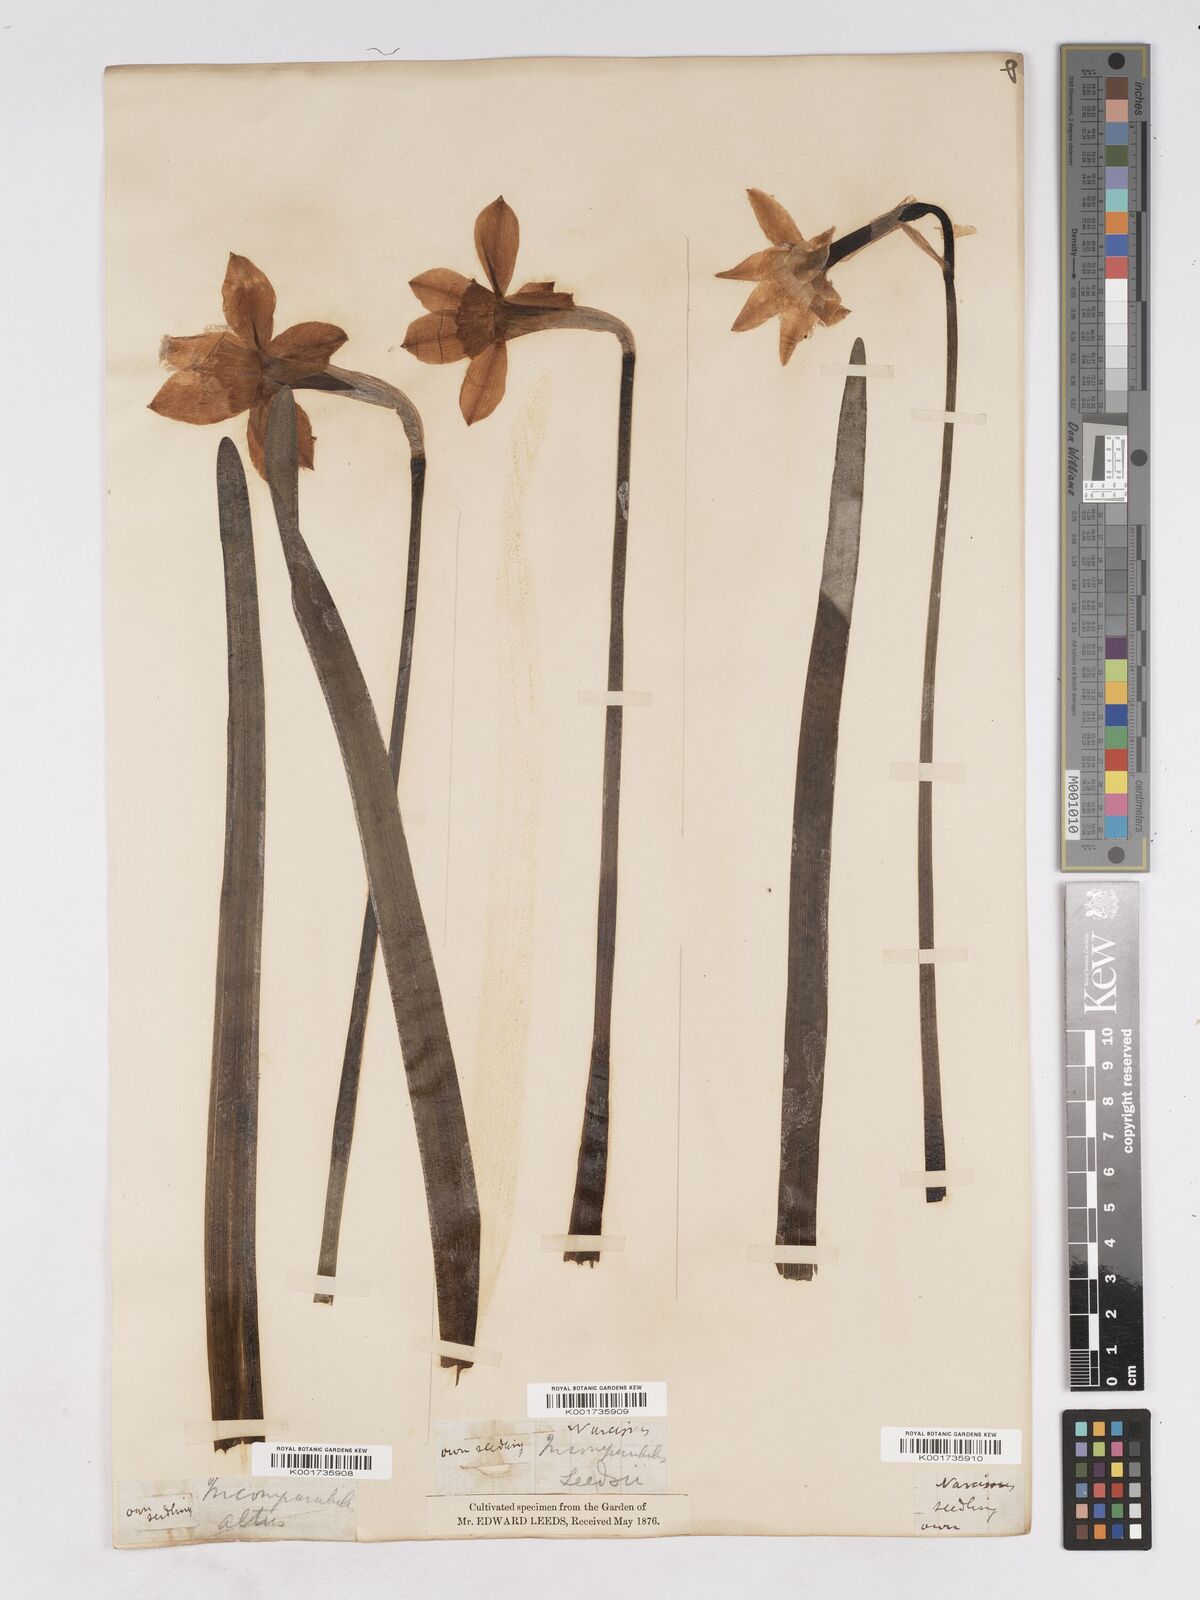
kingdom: Plantae
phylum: Tracheophyta
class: Liliopsida
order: Asparagales
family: Amaryllidaceae
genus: Narcissus
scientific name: Narcissus incomparabilis
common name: Nonesuch daffodil
